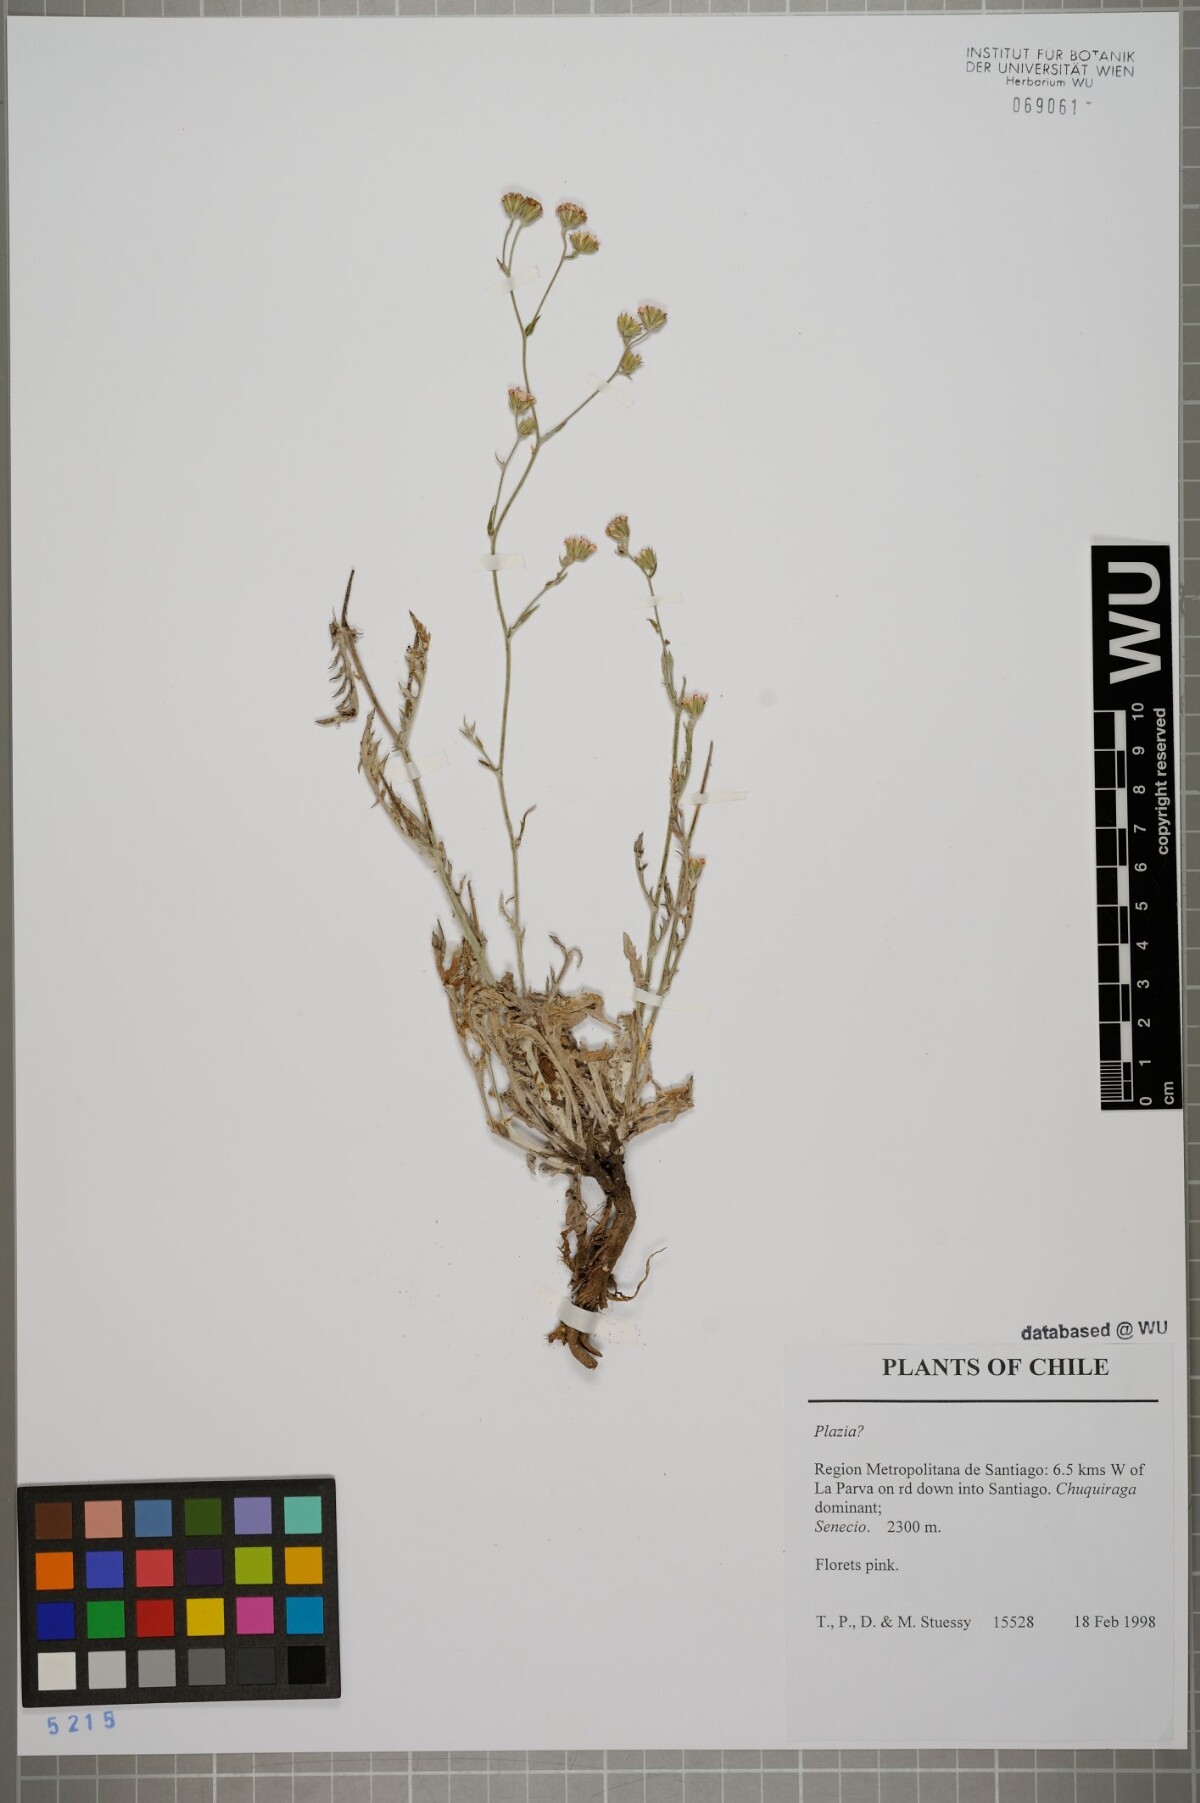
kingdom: Plantae
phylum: Tracheophyta
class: Magnoliopsida
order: Asterales
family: Asteraceae
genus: Plazia
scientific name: Plazia
